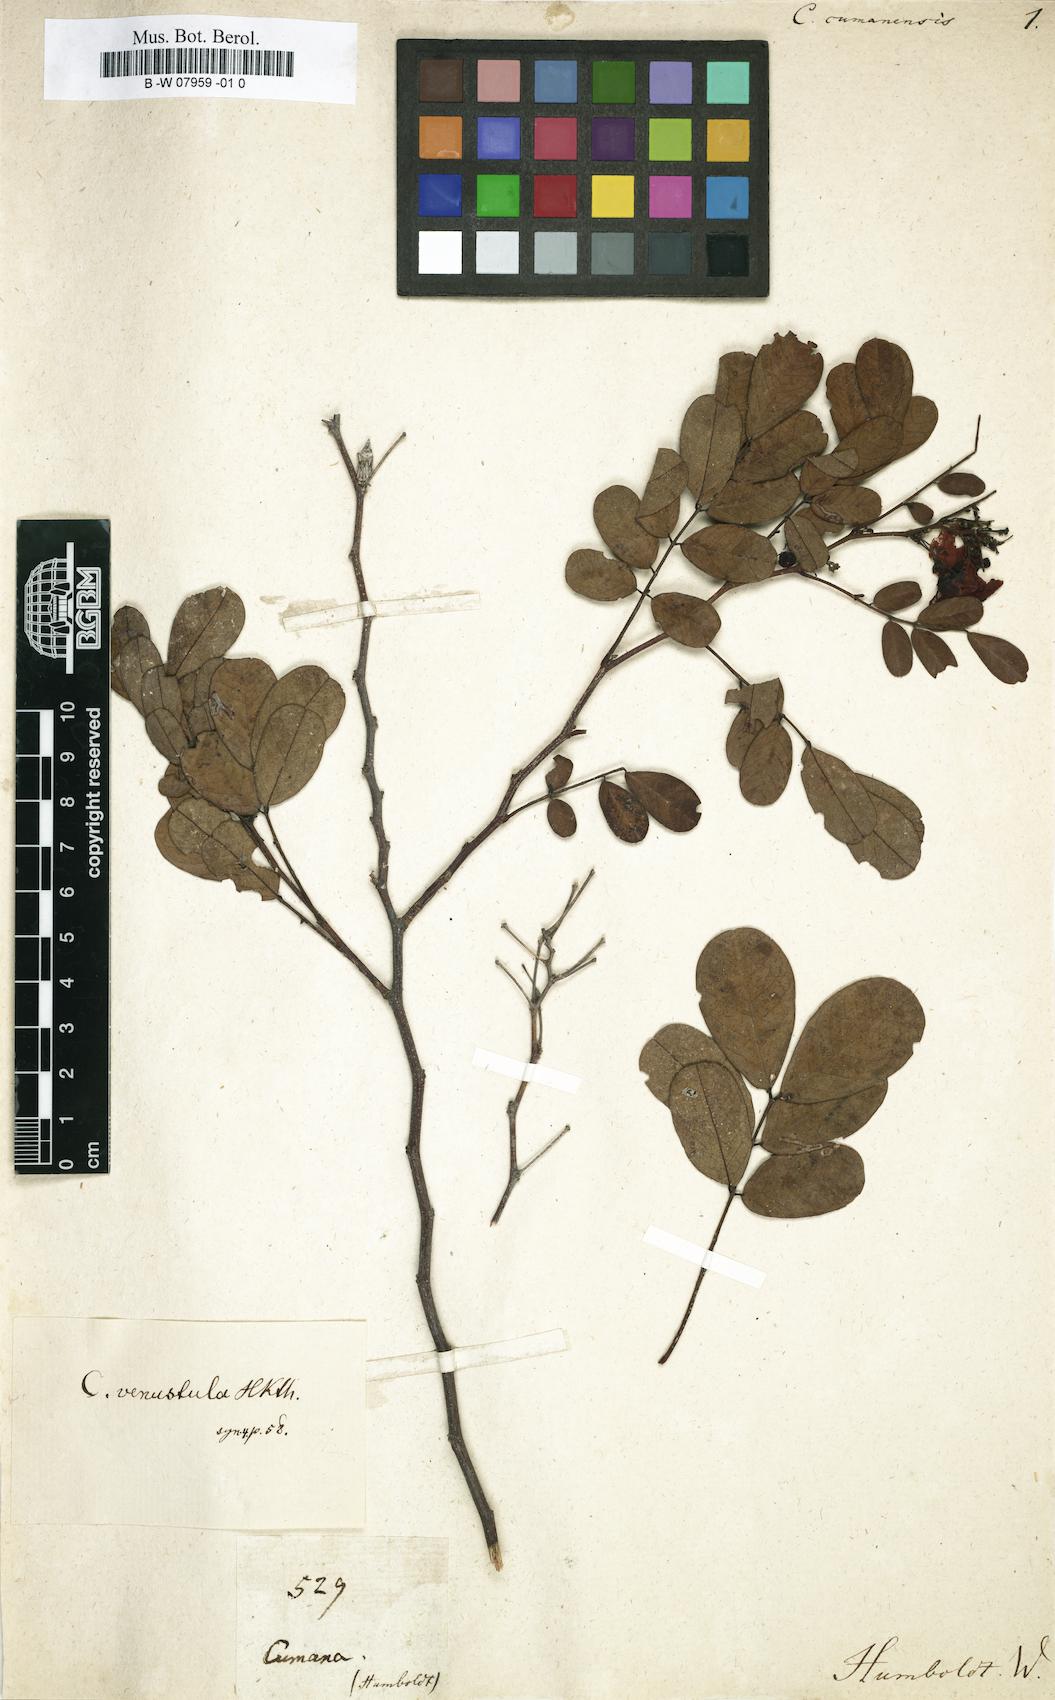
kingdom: Plantae
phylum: Tracheophyta
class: Magnoliopsida
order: Fabales
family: Fabaceae
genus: Cassia
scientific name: Cassia
